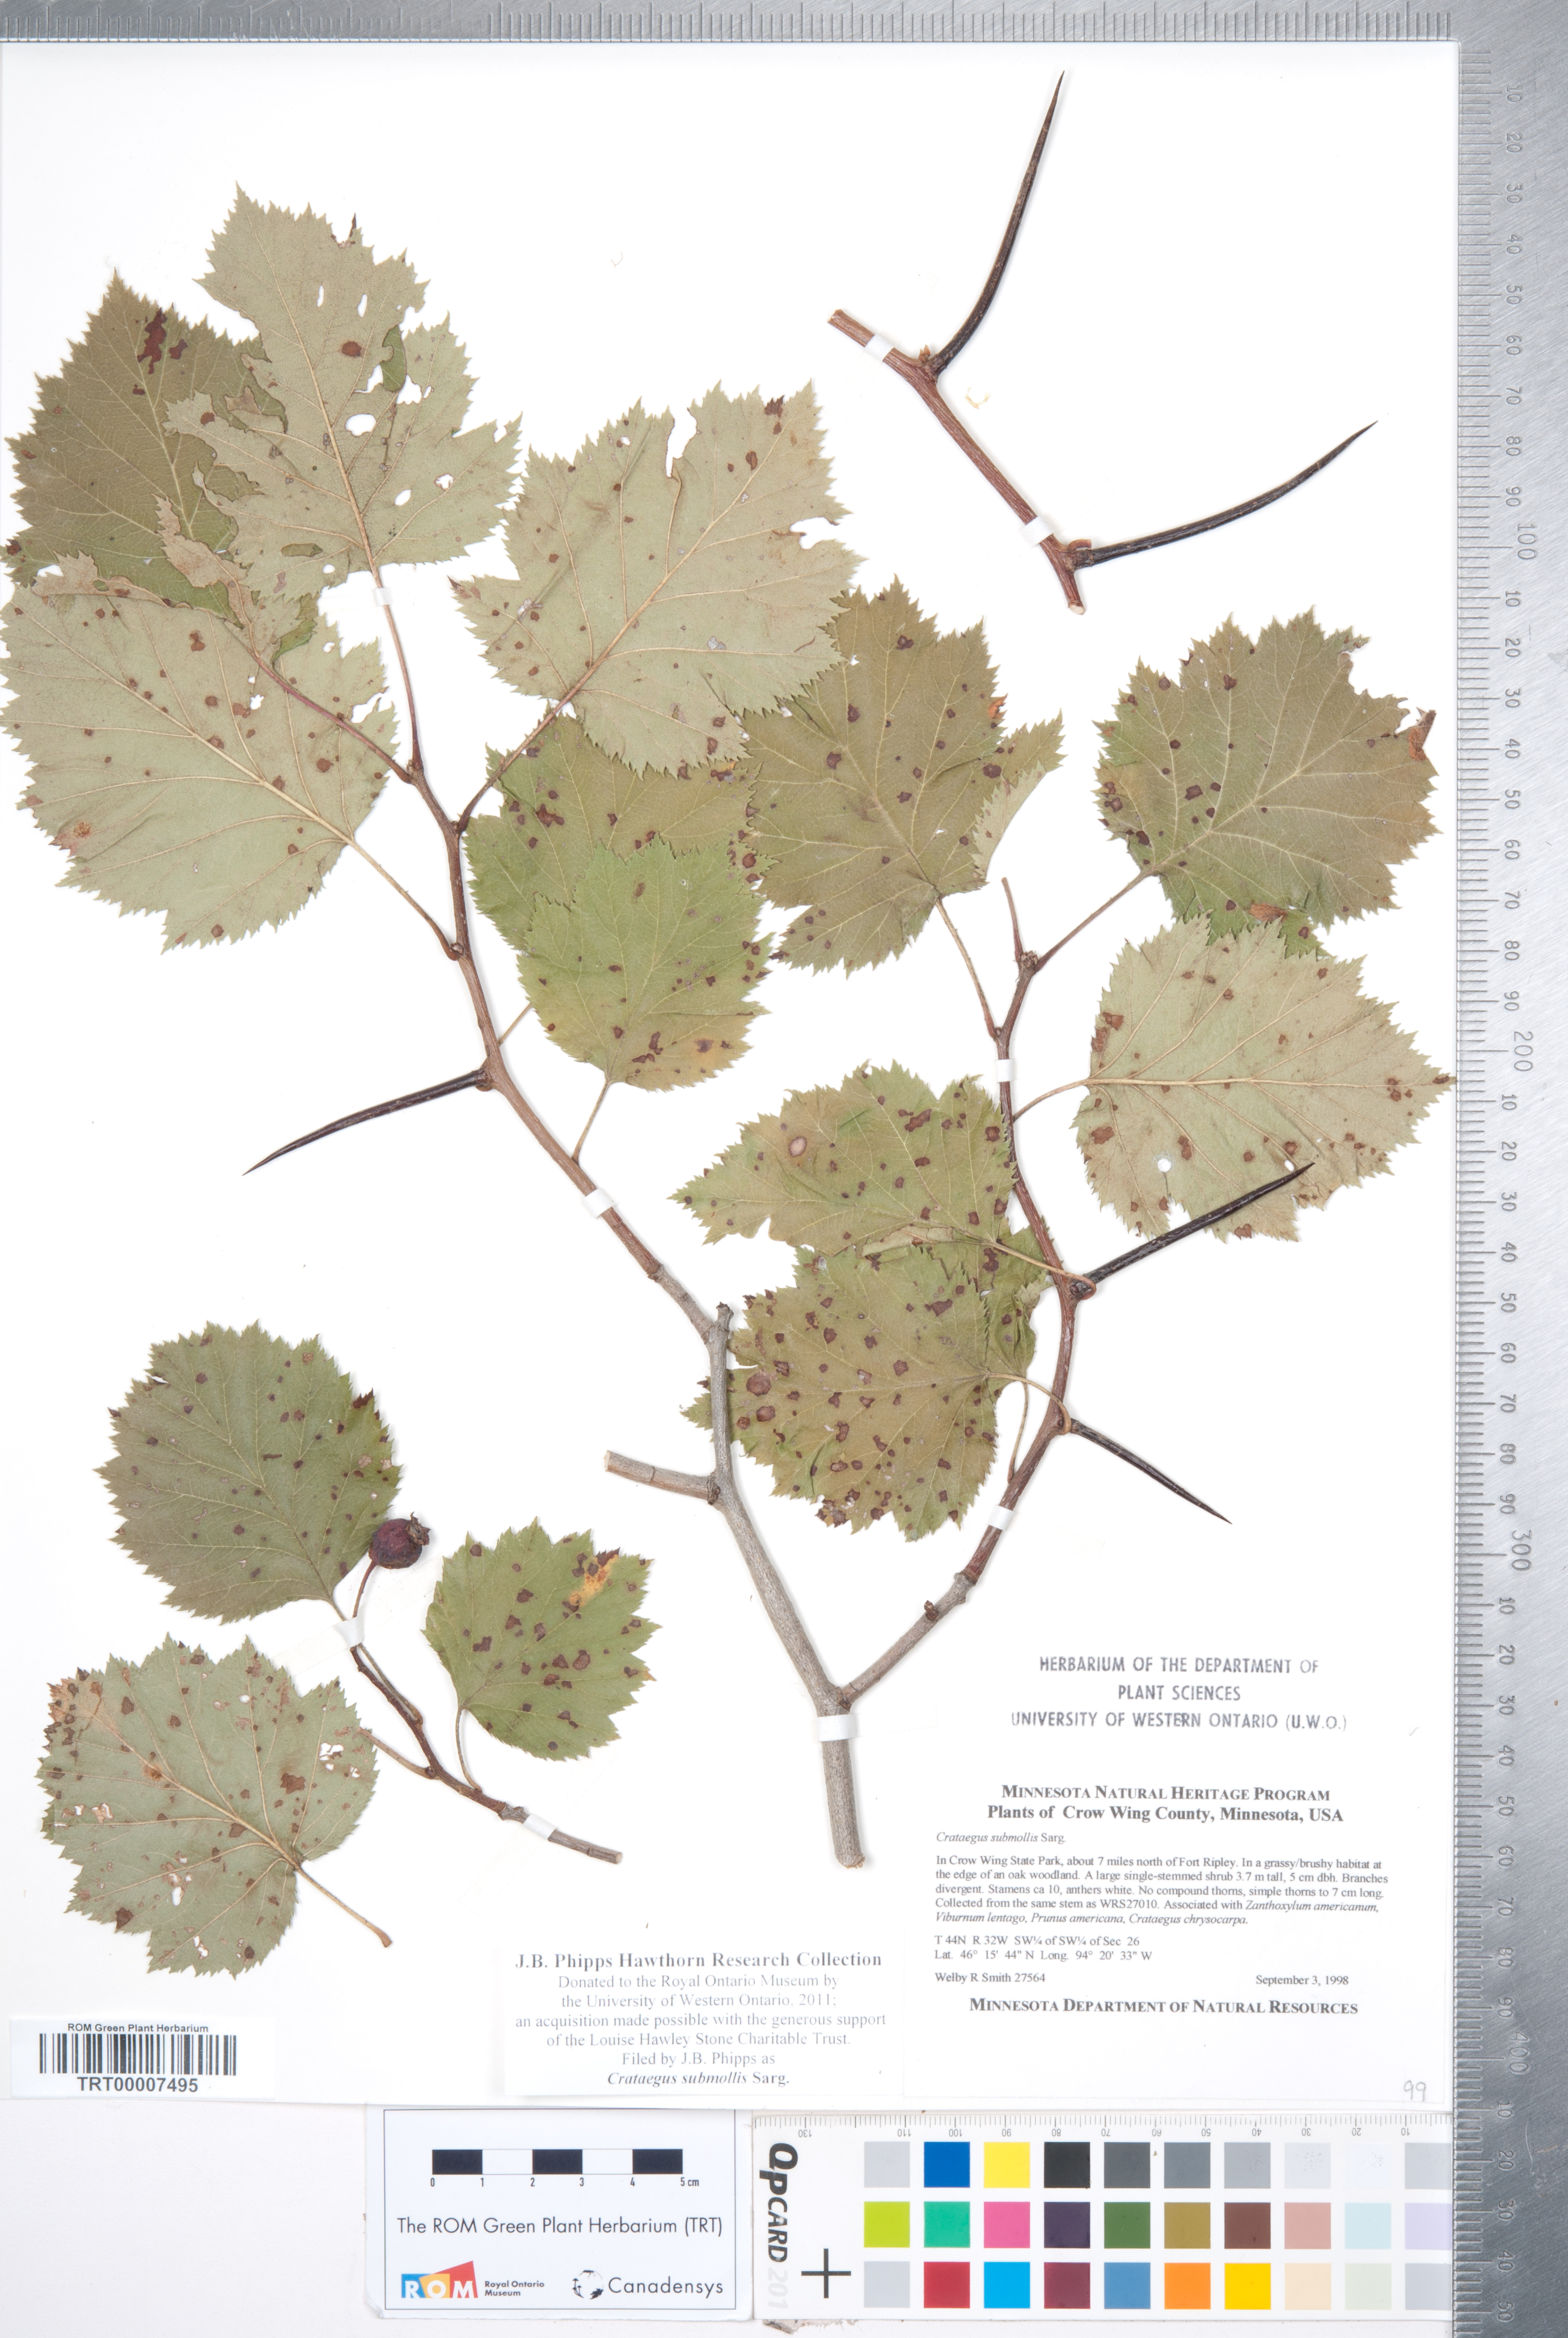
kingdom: Plantae
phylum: Tracheophyta
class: Magnoliopsida
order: Rosales
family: Rosaceae
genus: Crataegus
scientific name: Crataegus submollis
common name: Hairy cockspurthorn
